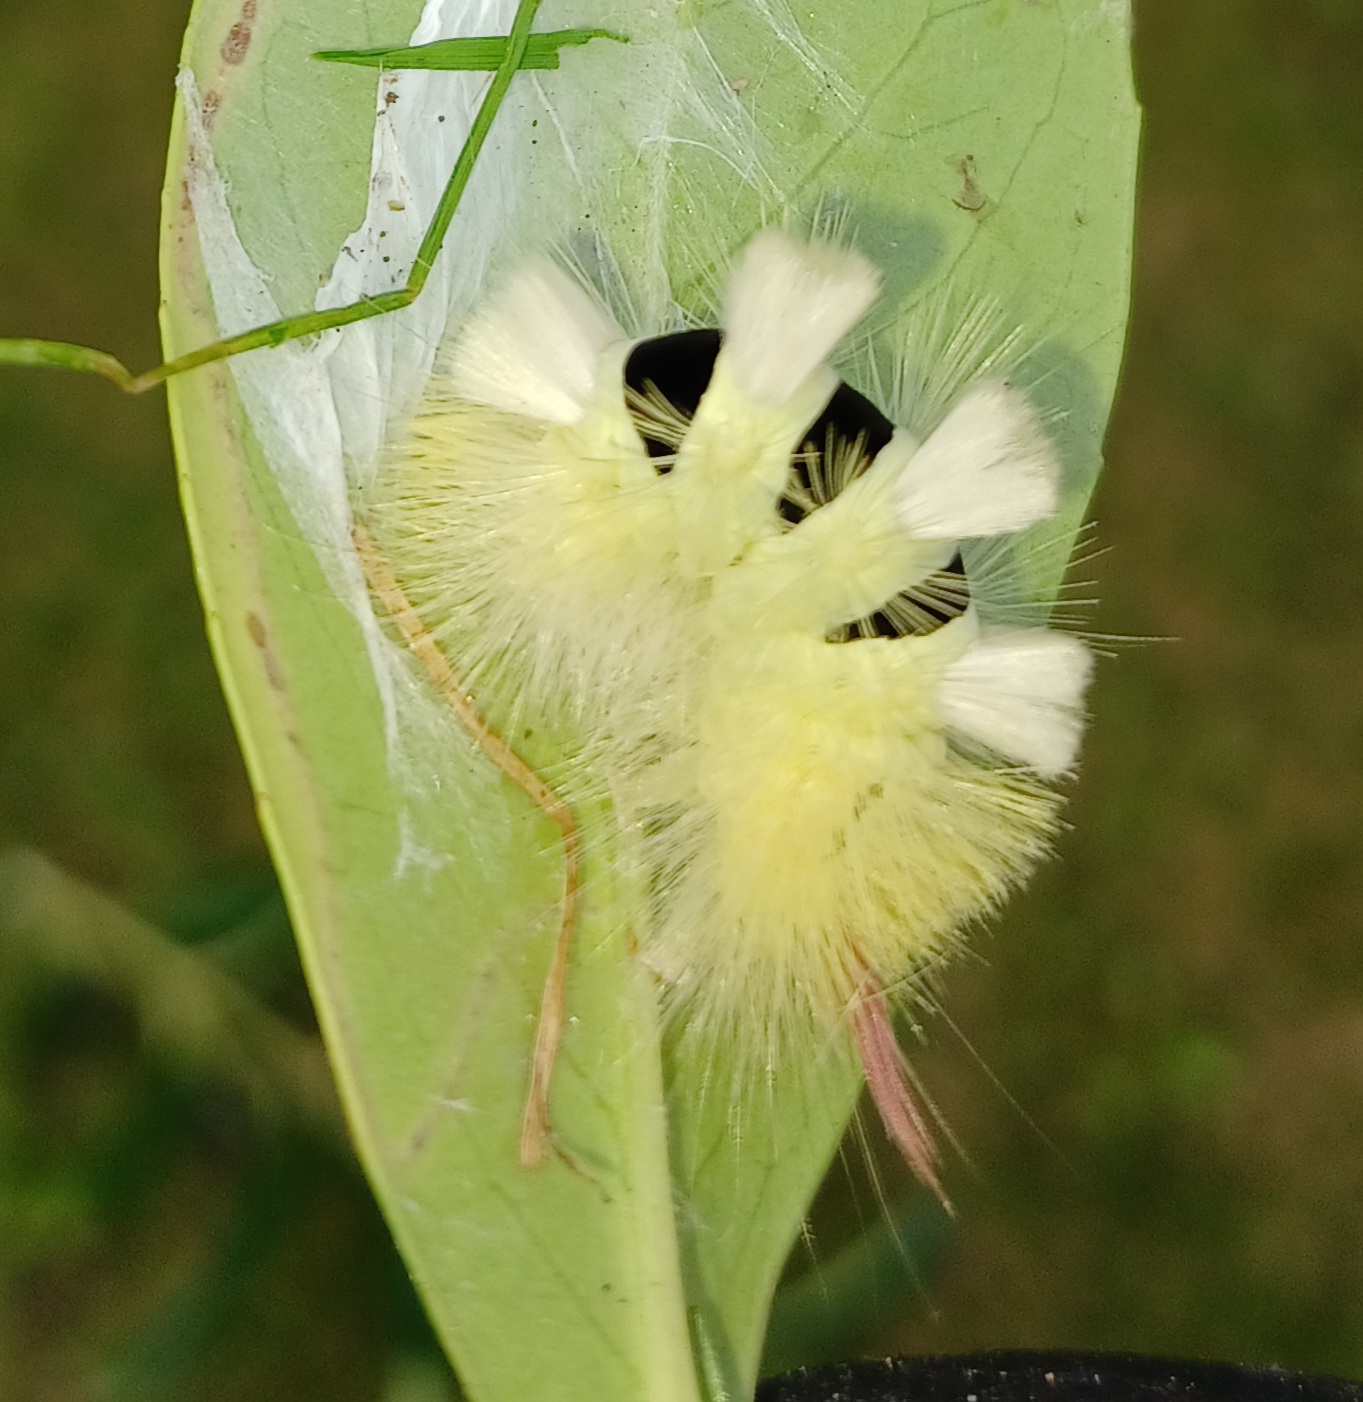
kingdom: Animalia
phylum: Arthropoda
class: Insecta
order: Lepidoptera
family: Erebidae
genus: Calliteara
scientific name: Calliteara pudibunda
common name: Bøgenonne
